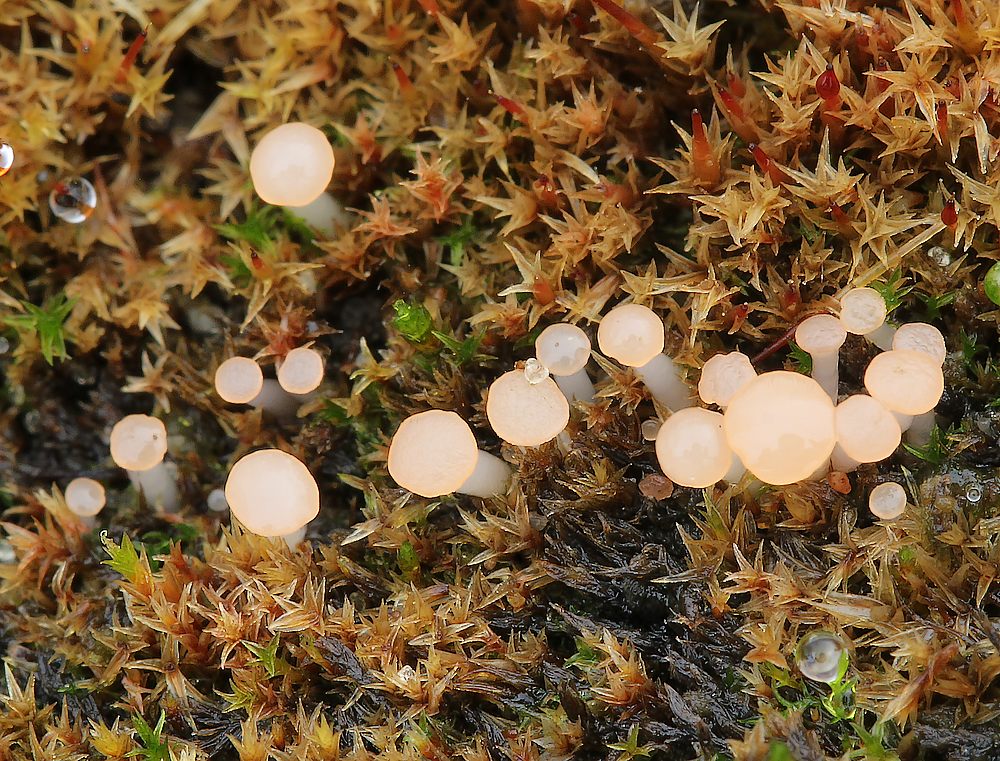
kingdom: Fungi
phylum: Ascomycota
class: Leotiomycetes
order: Helotiales
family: Hyaloscyphaceae
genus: Roseodiscus
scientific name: Roseodiscus formosus
